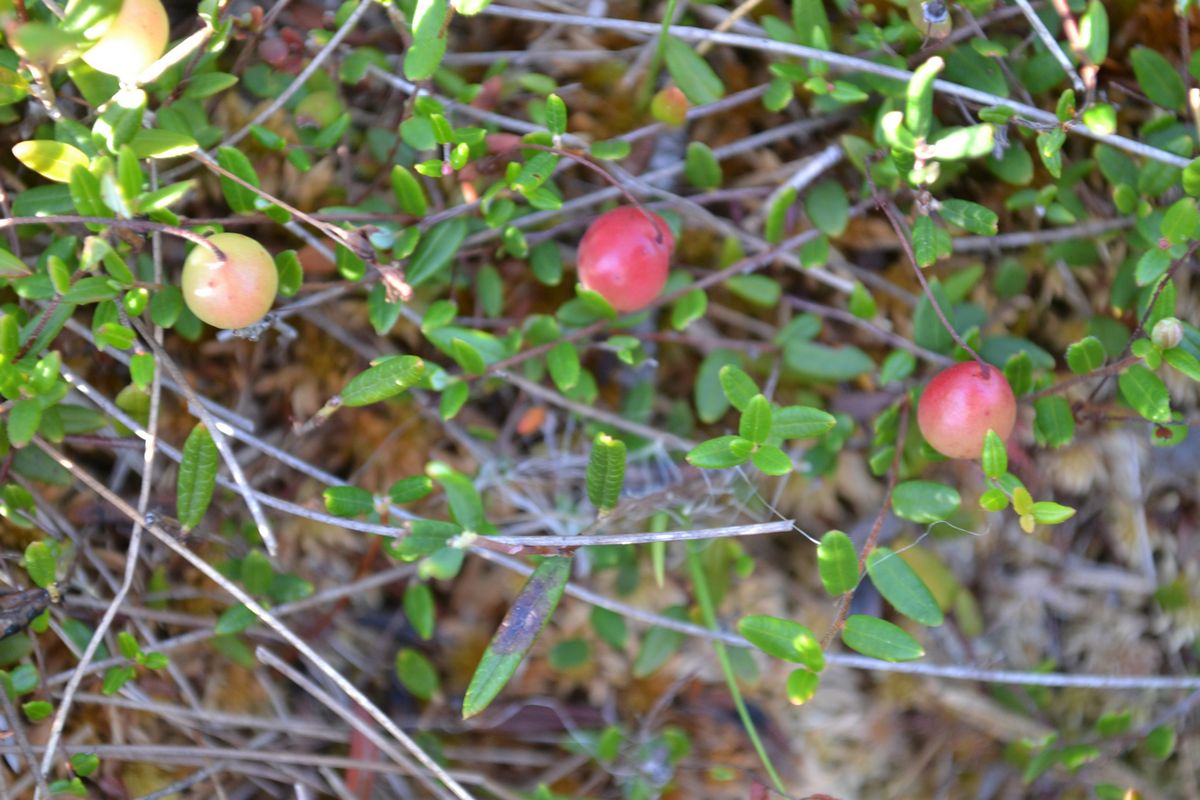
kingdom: Plantae
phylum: Tracheophyta
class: Magnoliopsida
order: Ericales
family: Ericaceae
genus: Vaccinium
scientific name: Vaccinium oxycoccos
